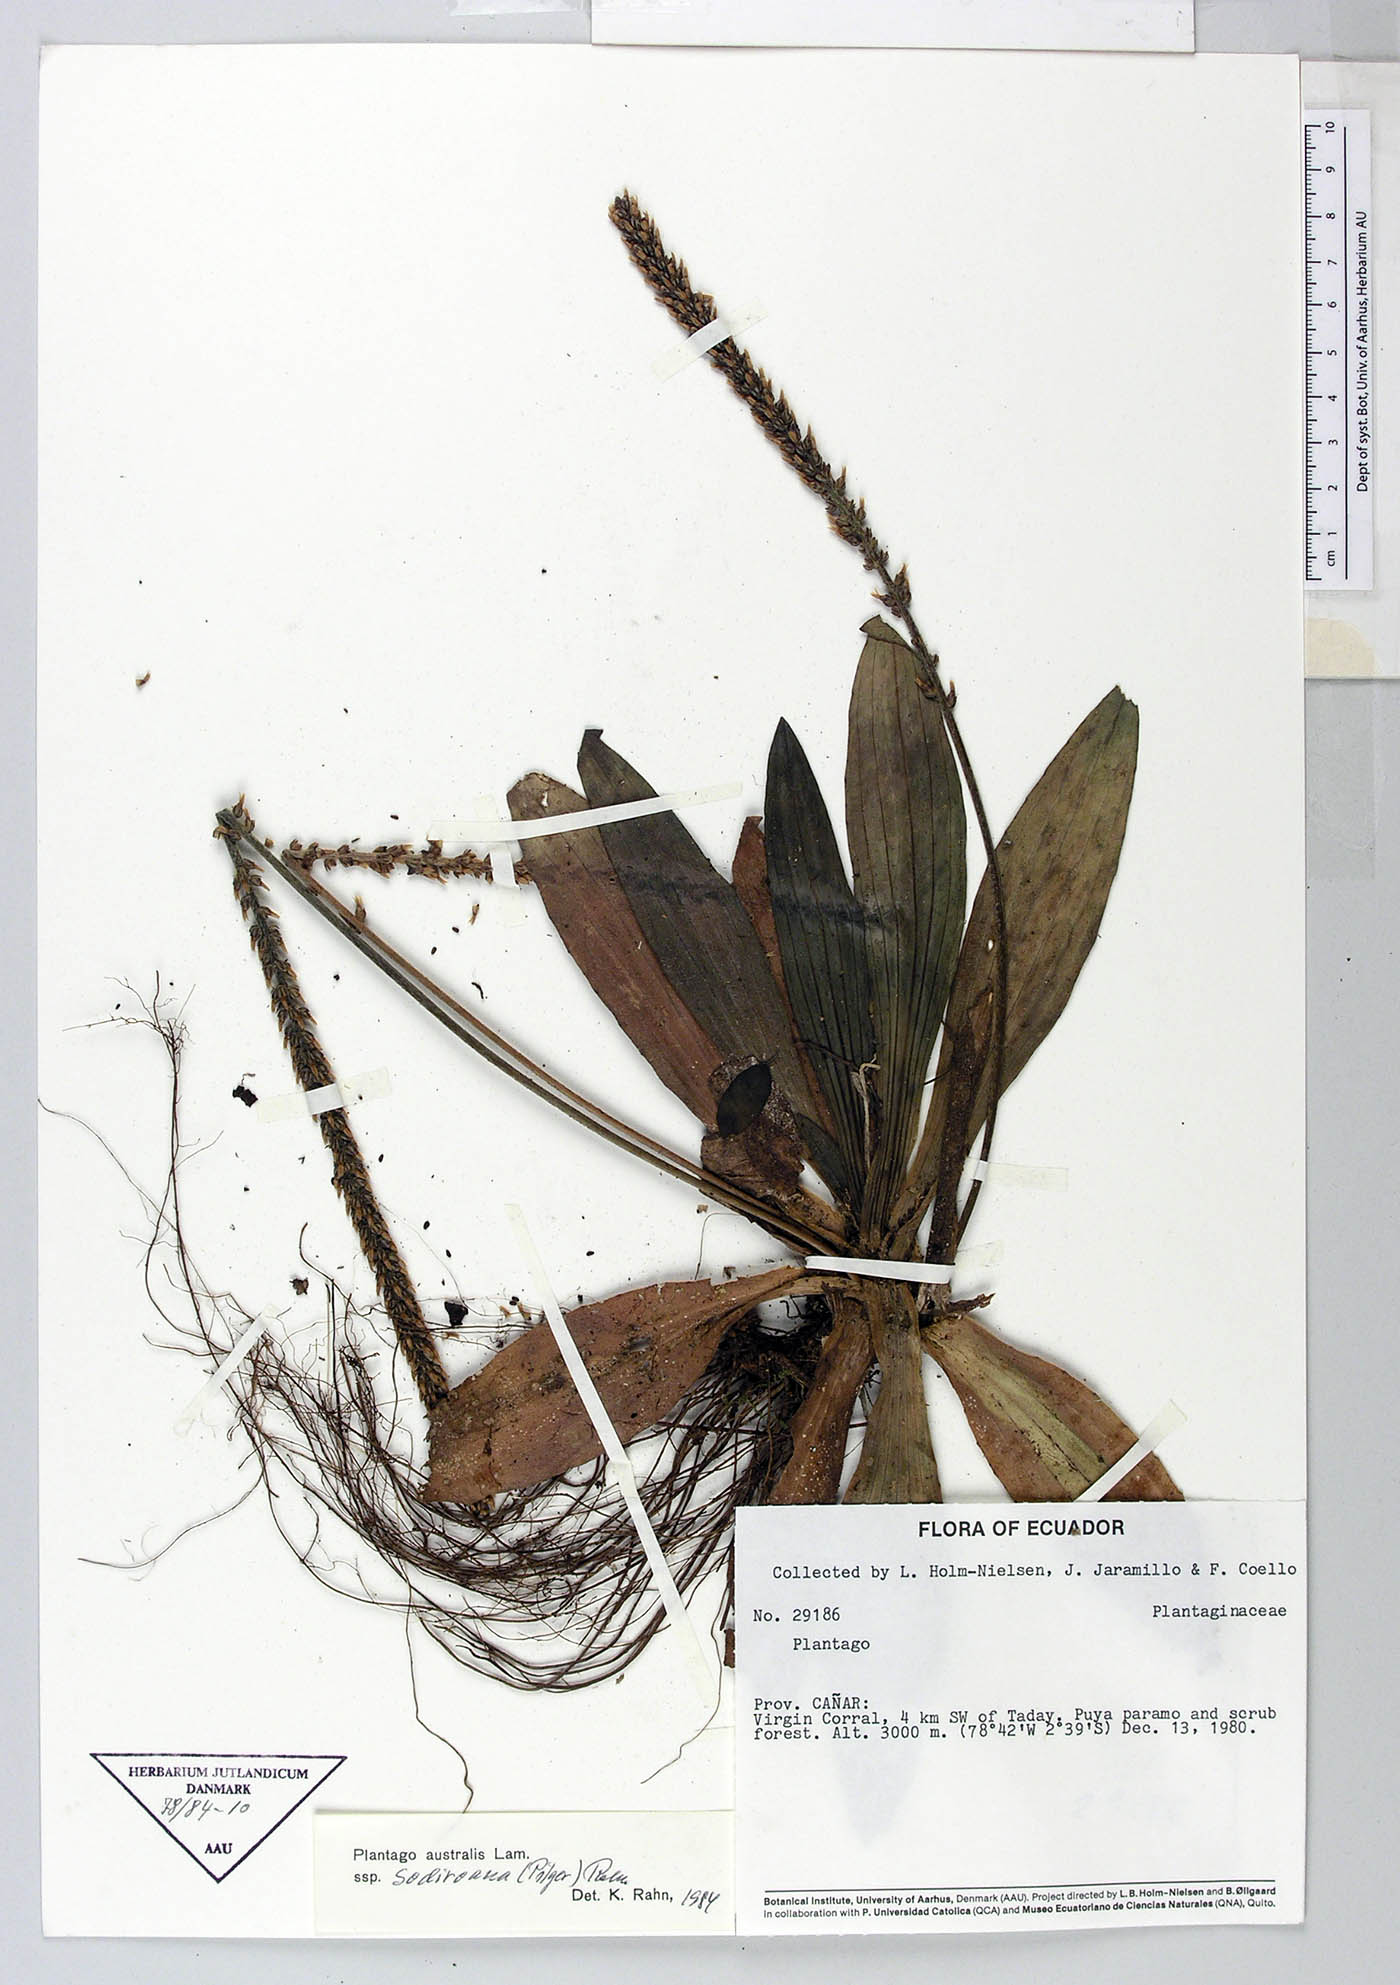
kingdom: Plantae
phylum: Tracheophyta
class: Magnoliopsida
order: Lamiales
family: Plantaginaceae
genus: Plantago
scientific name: Plantago australis
